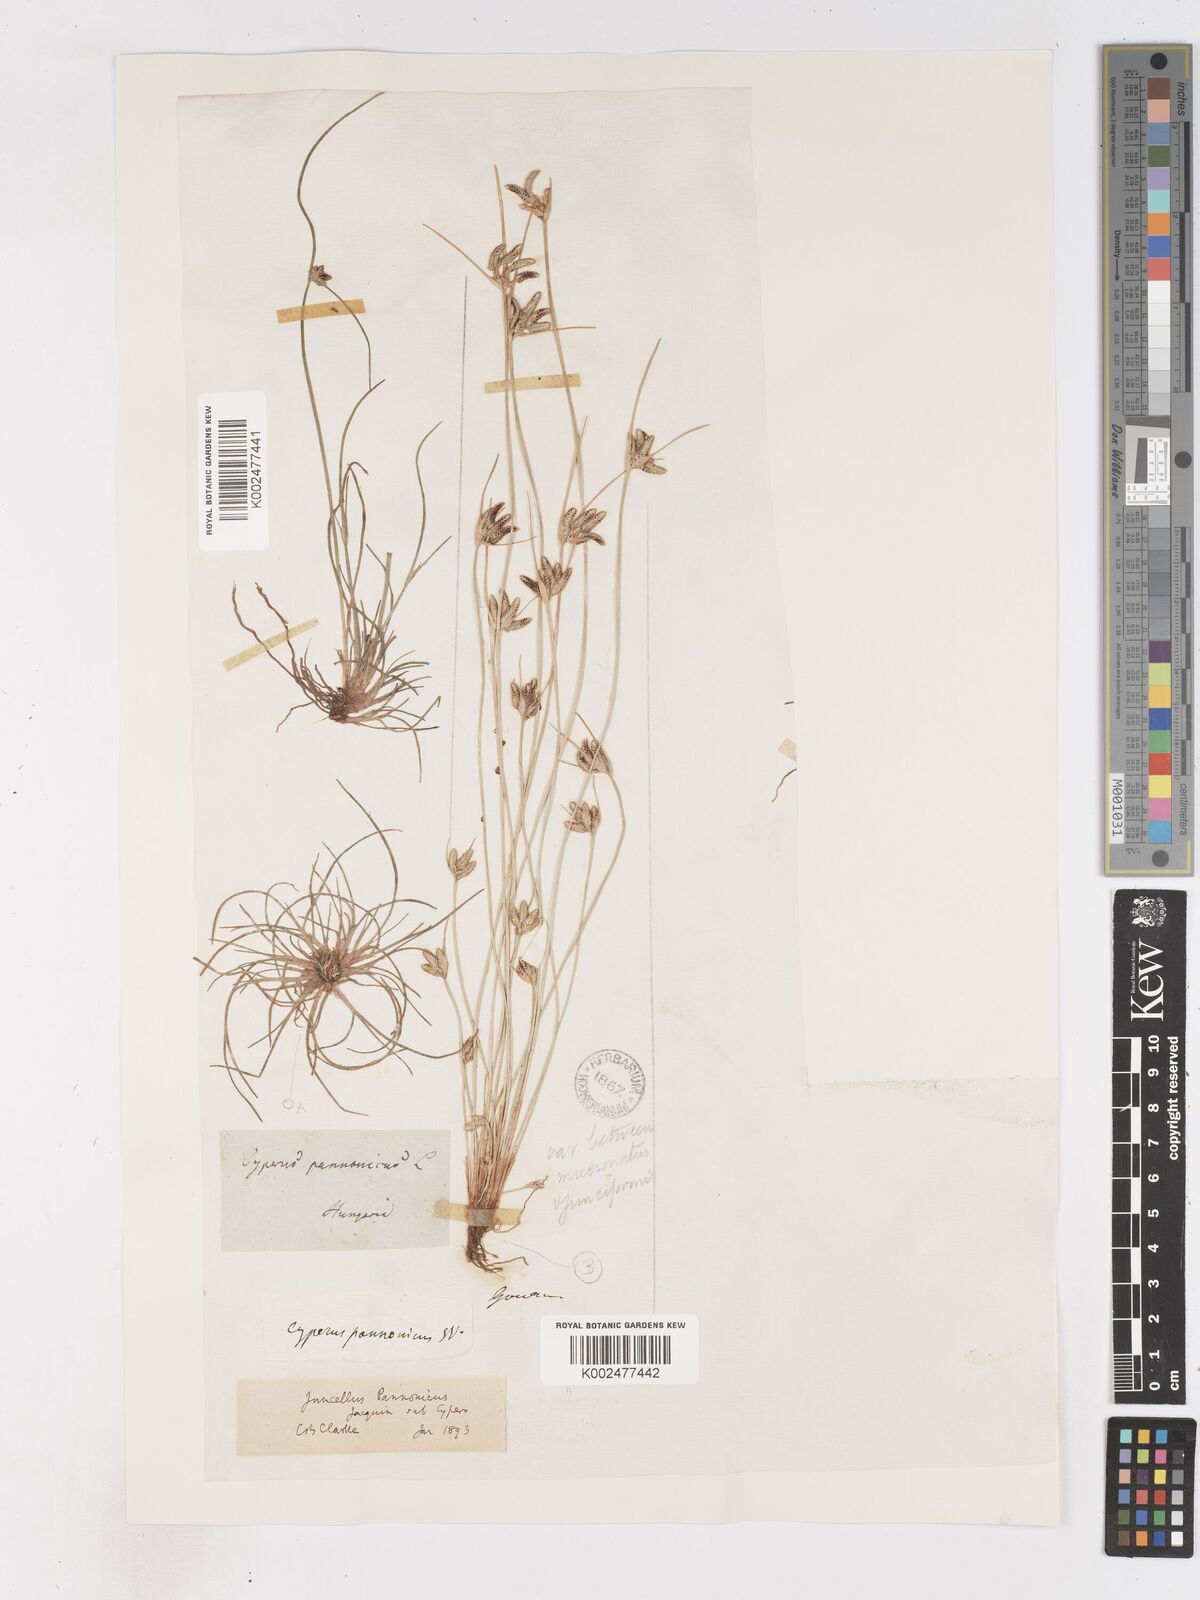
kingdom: Plantae
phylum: Tracheophyta
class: Liliopsida
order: Poales
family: Cyperaceae
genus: Cyperus
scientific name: Cyperus pannonicus
